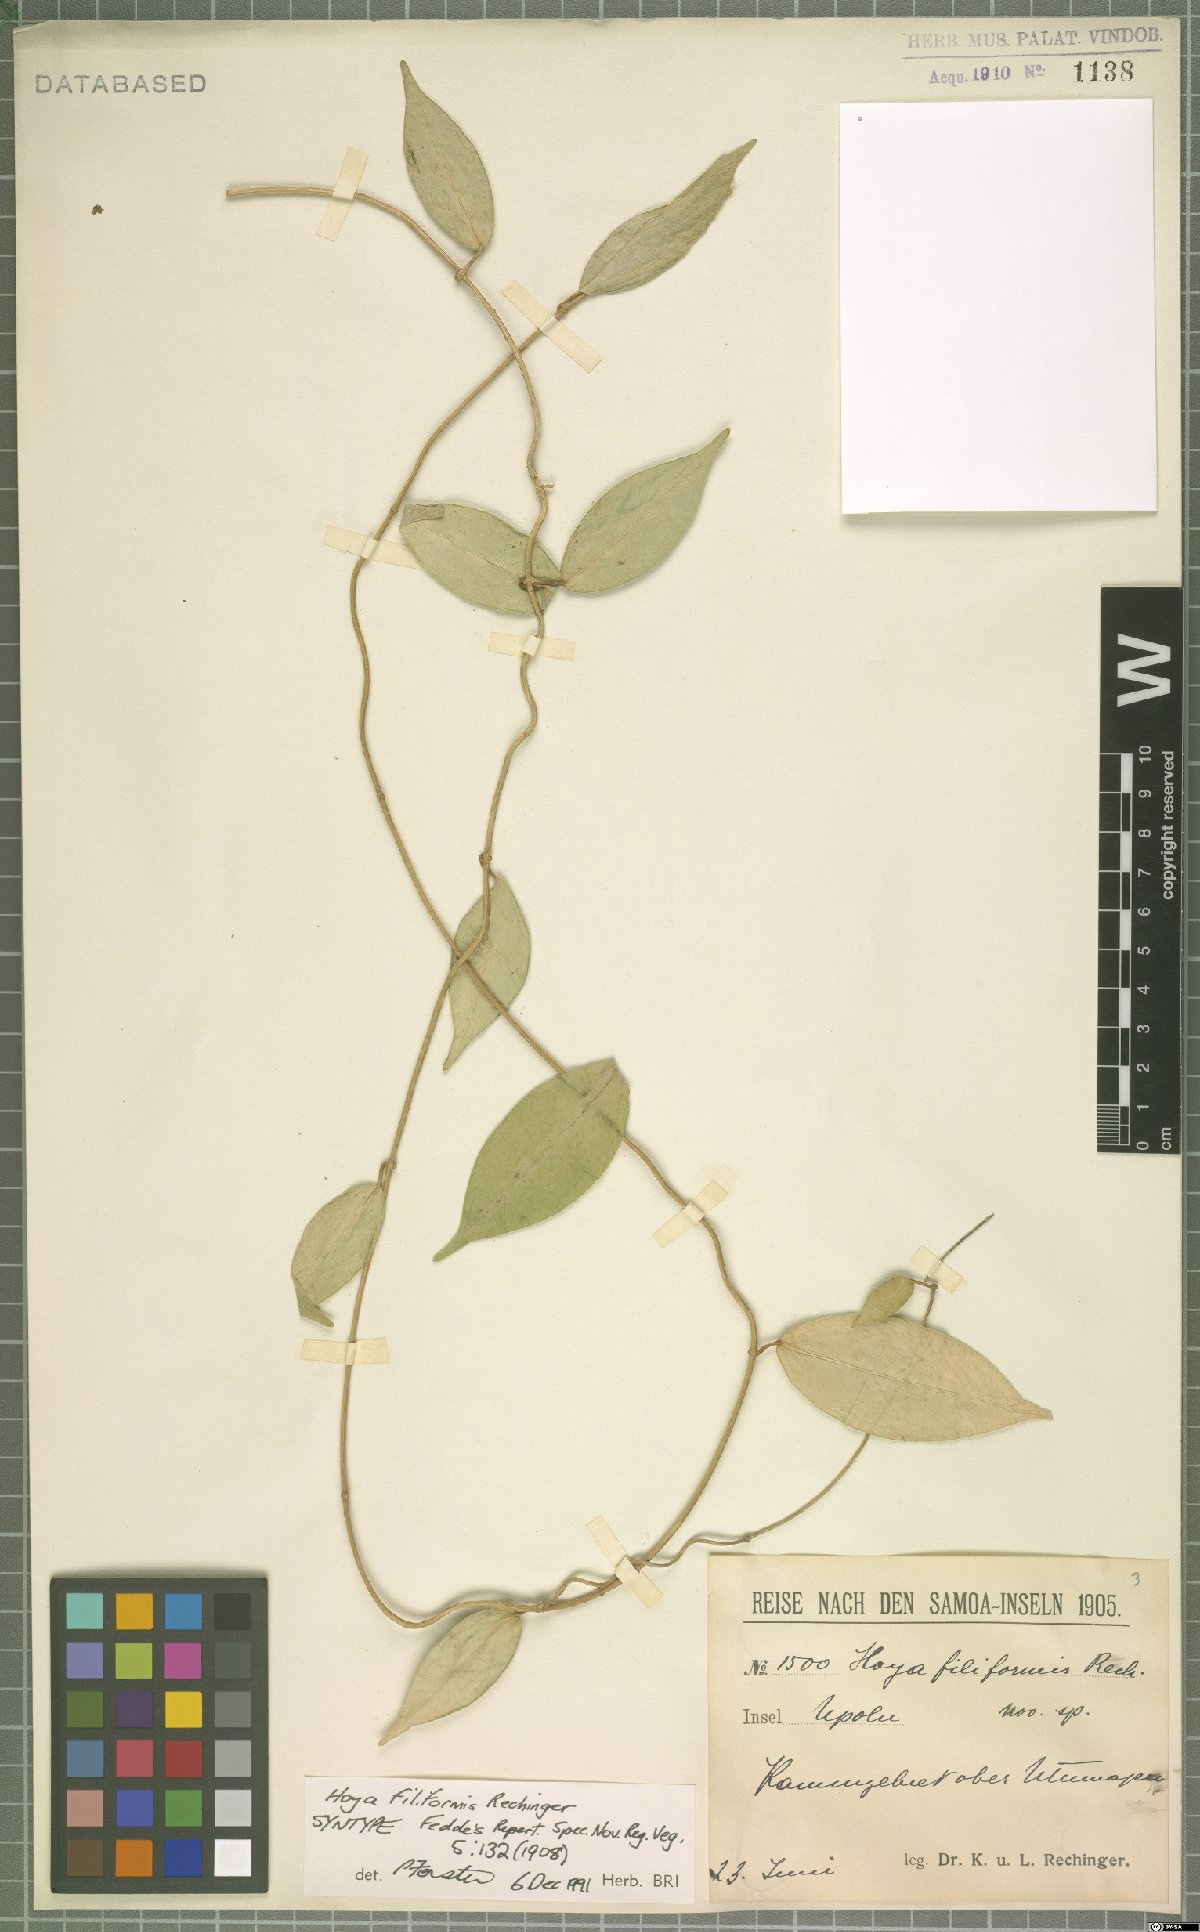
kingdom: Plantae
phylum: Tracheophyta
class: Magnoliopsida
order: Gentianales
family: Apocynaceae
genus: Hoya
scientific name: Hoya filiformis
